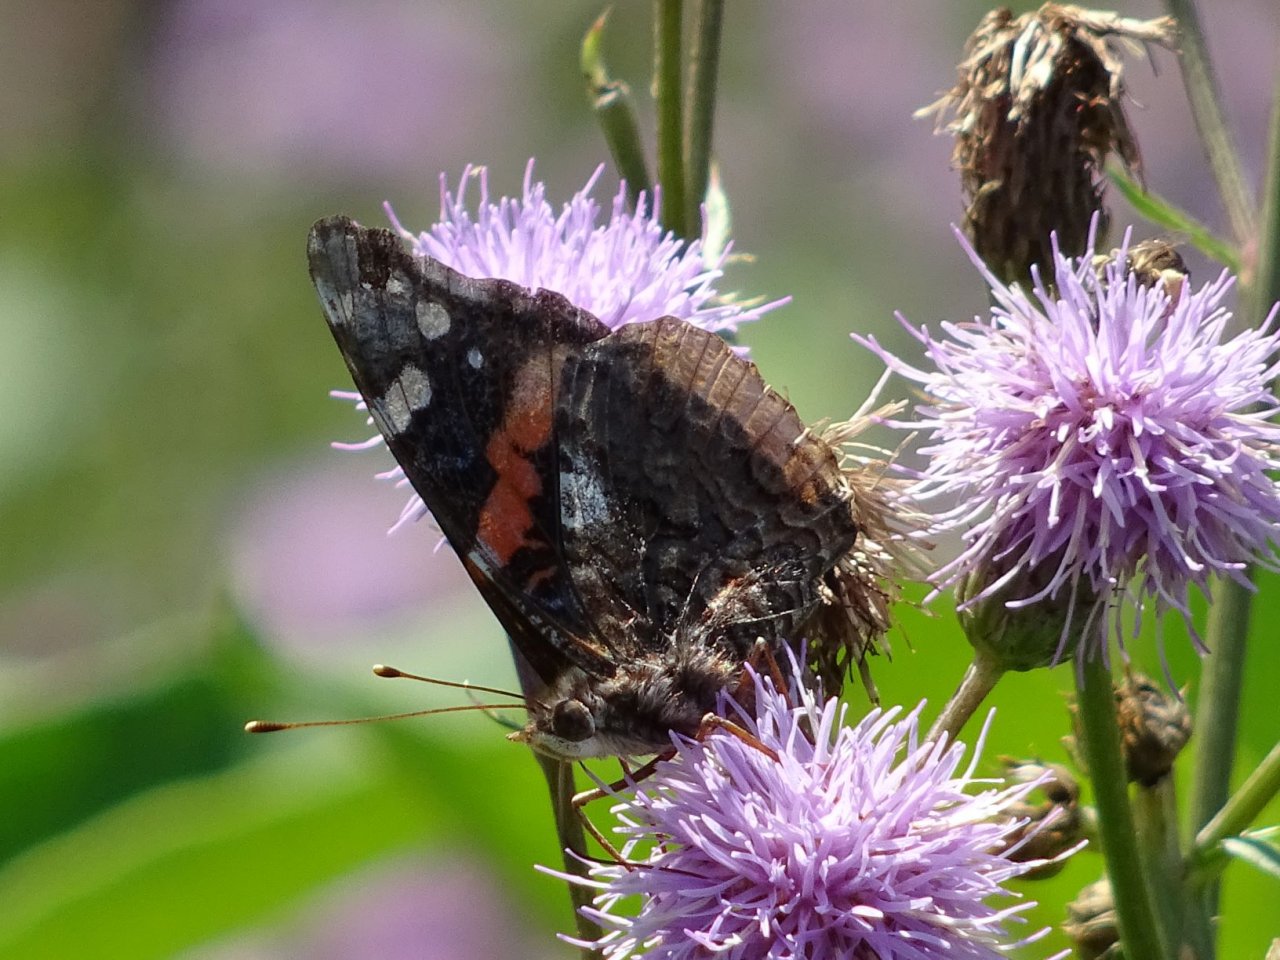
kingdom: Animalia
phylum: Arthropoda
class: Insecta
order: Lepidoptera
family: Nymphalidae
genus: Vanessa
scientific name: Vanessa atalanta
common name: Red Admiral
